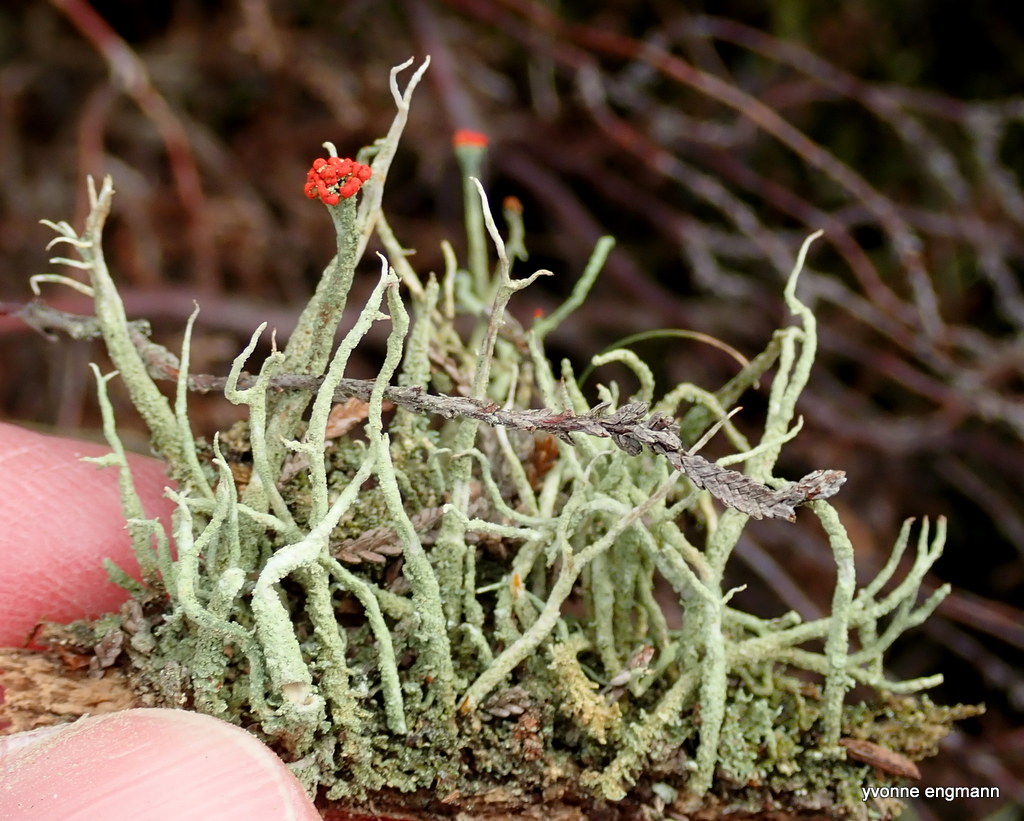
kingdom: Fungi
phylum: Ascomycota
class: Lecanoromycetes
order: Lecanorales
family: Cladoniaceae
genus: Cladonia
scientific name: Cladonia floerkeana
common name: lakrød bægerlav
